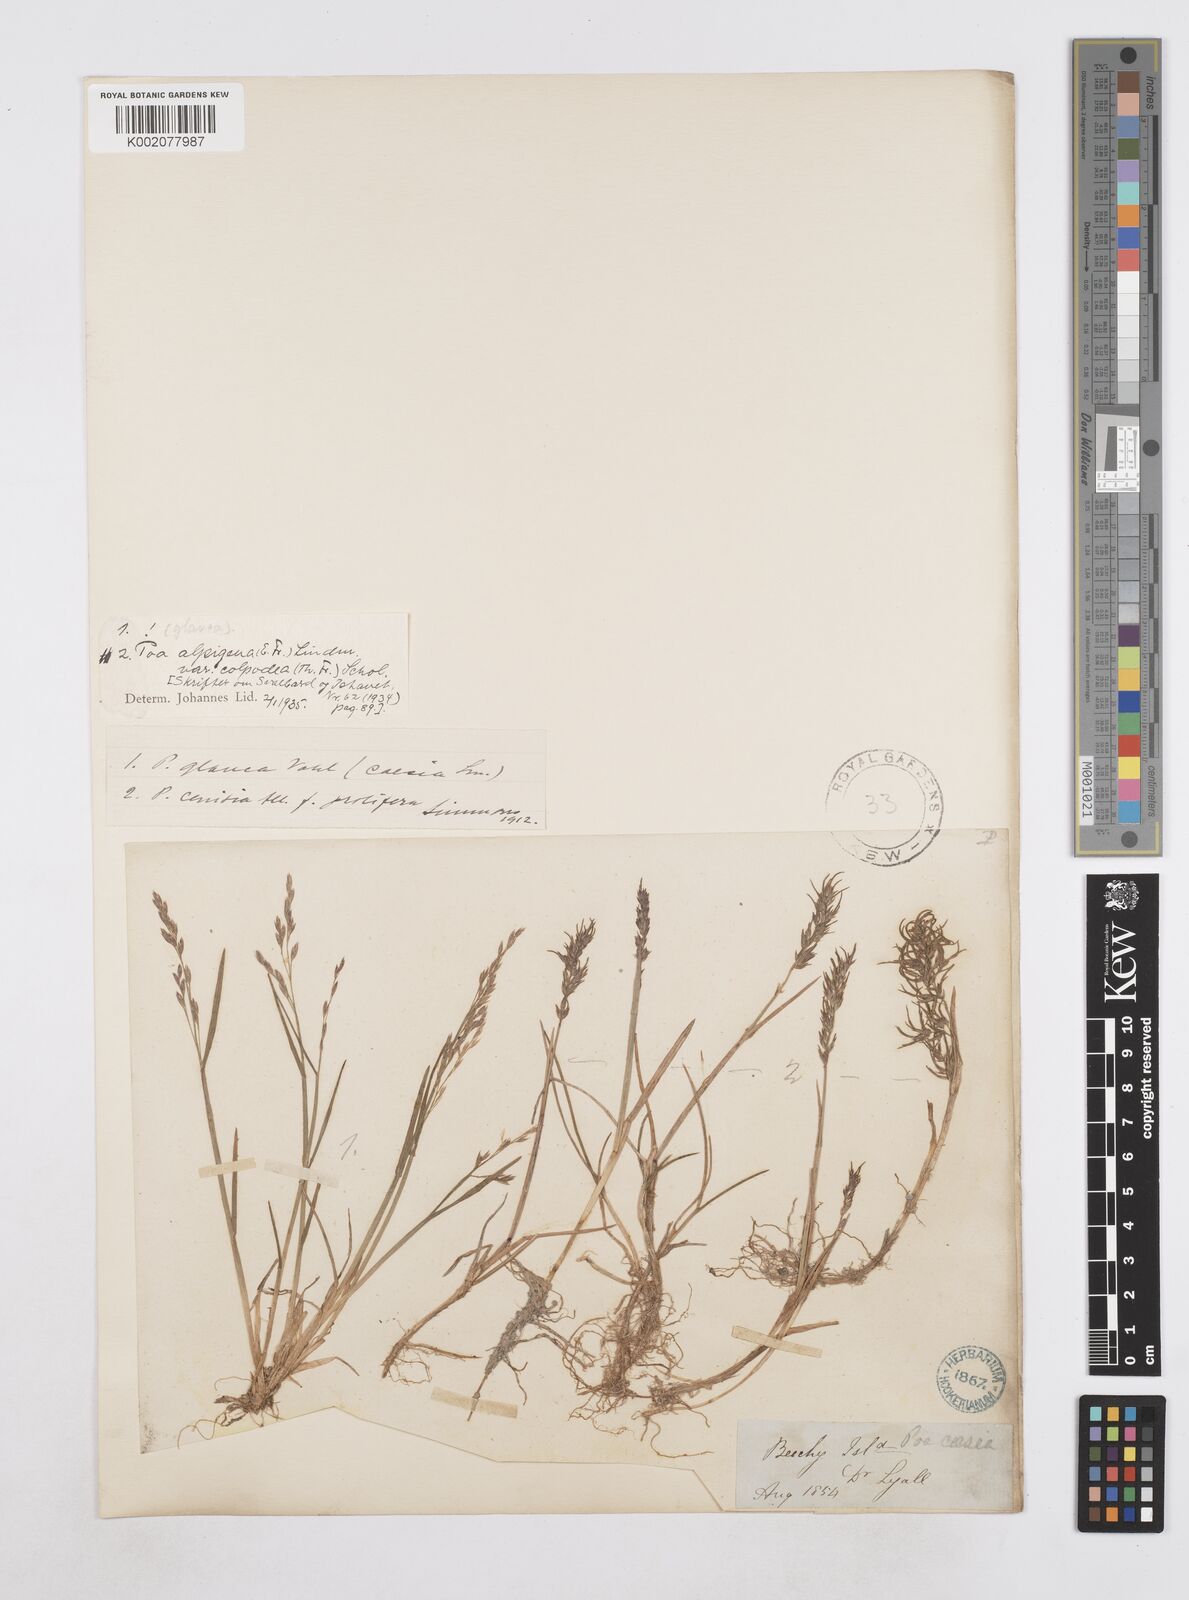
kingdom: Plantae
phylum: Tracheophyta
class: Liliopsida
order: Poales
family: Poaceae
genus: Poa
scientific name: Poa glauca
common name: Glaucous bluegrass
